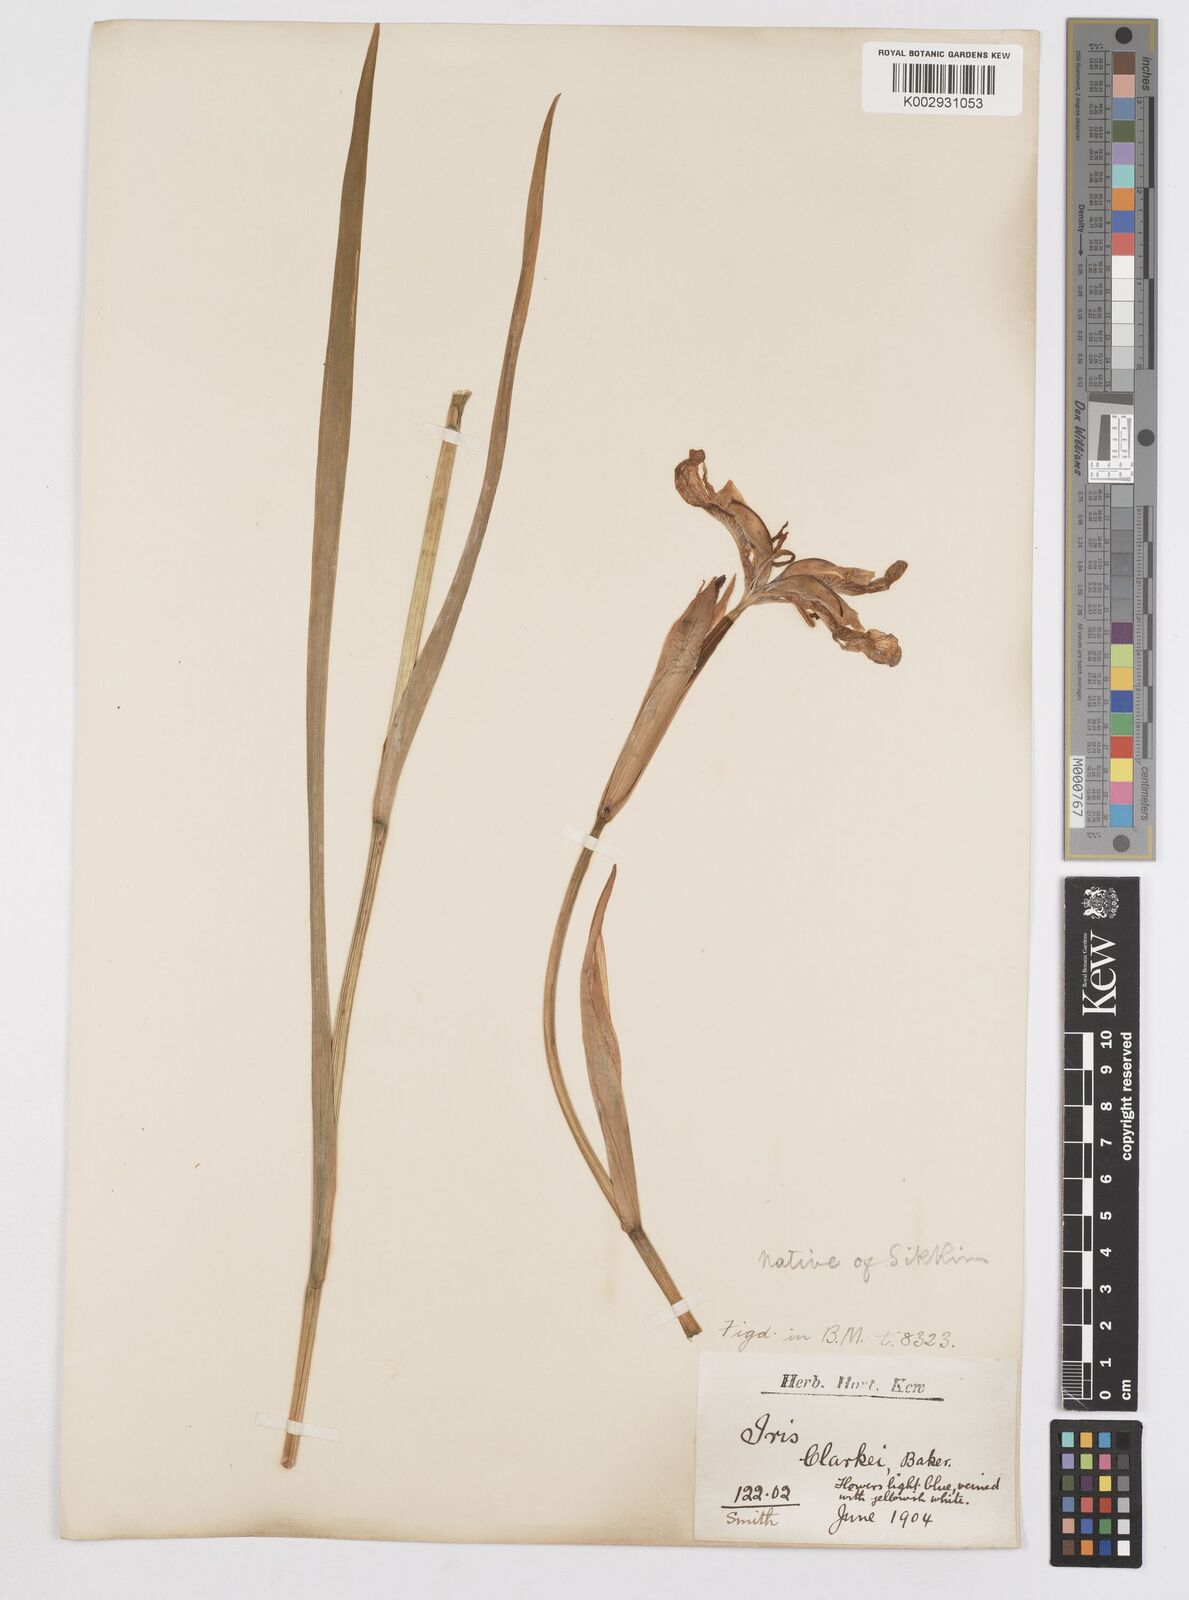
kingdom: Plantae
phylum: Tracheophyta
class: Liliopsida
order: Asparagales
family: Iridaceae
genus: Iris
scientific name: Iris clarkei
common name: Tibet iris
